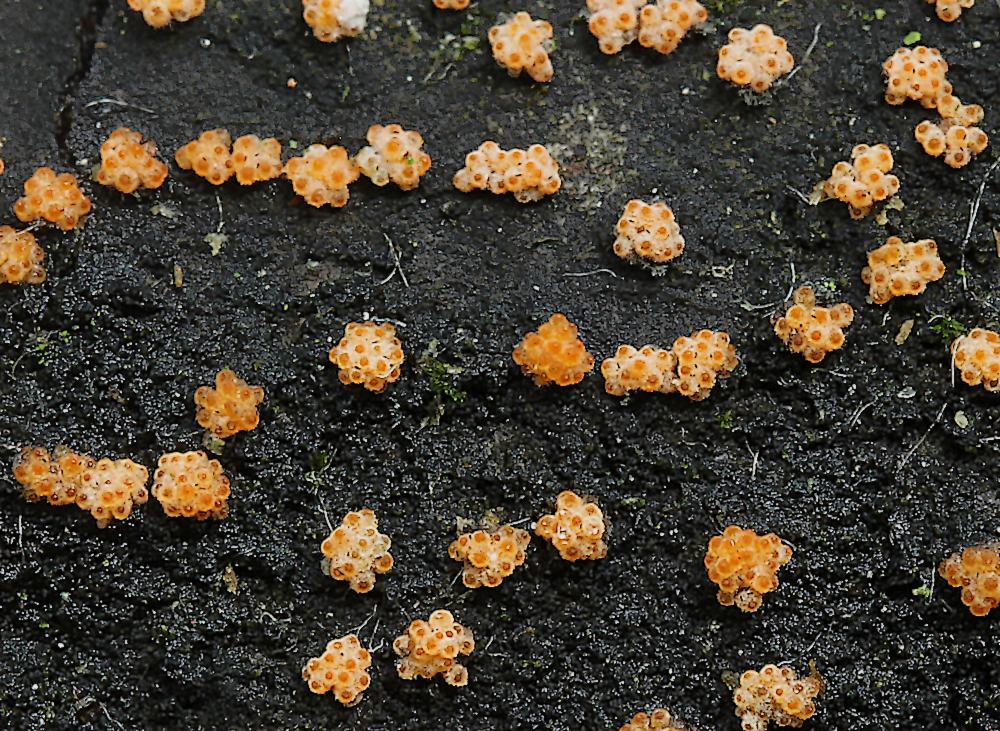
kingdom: Fungi
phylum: Ascomycota
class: Sordariomycetes
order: Hypocreales
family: Flammocladiellaceae
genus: Flammocladiella
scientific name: Flammocladiella decora
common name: kulvulkan-cinnobersvamp
